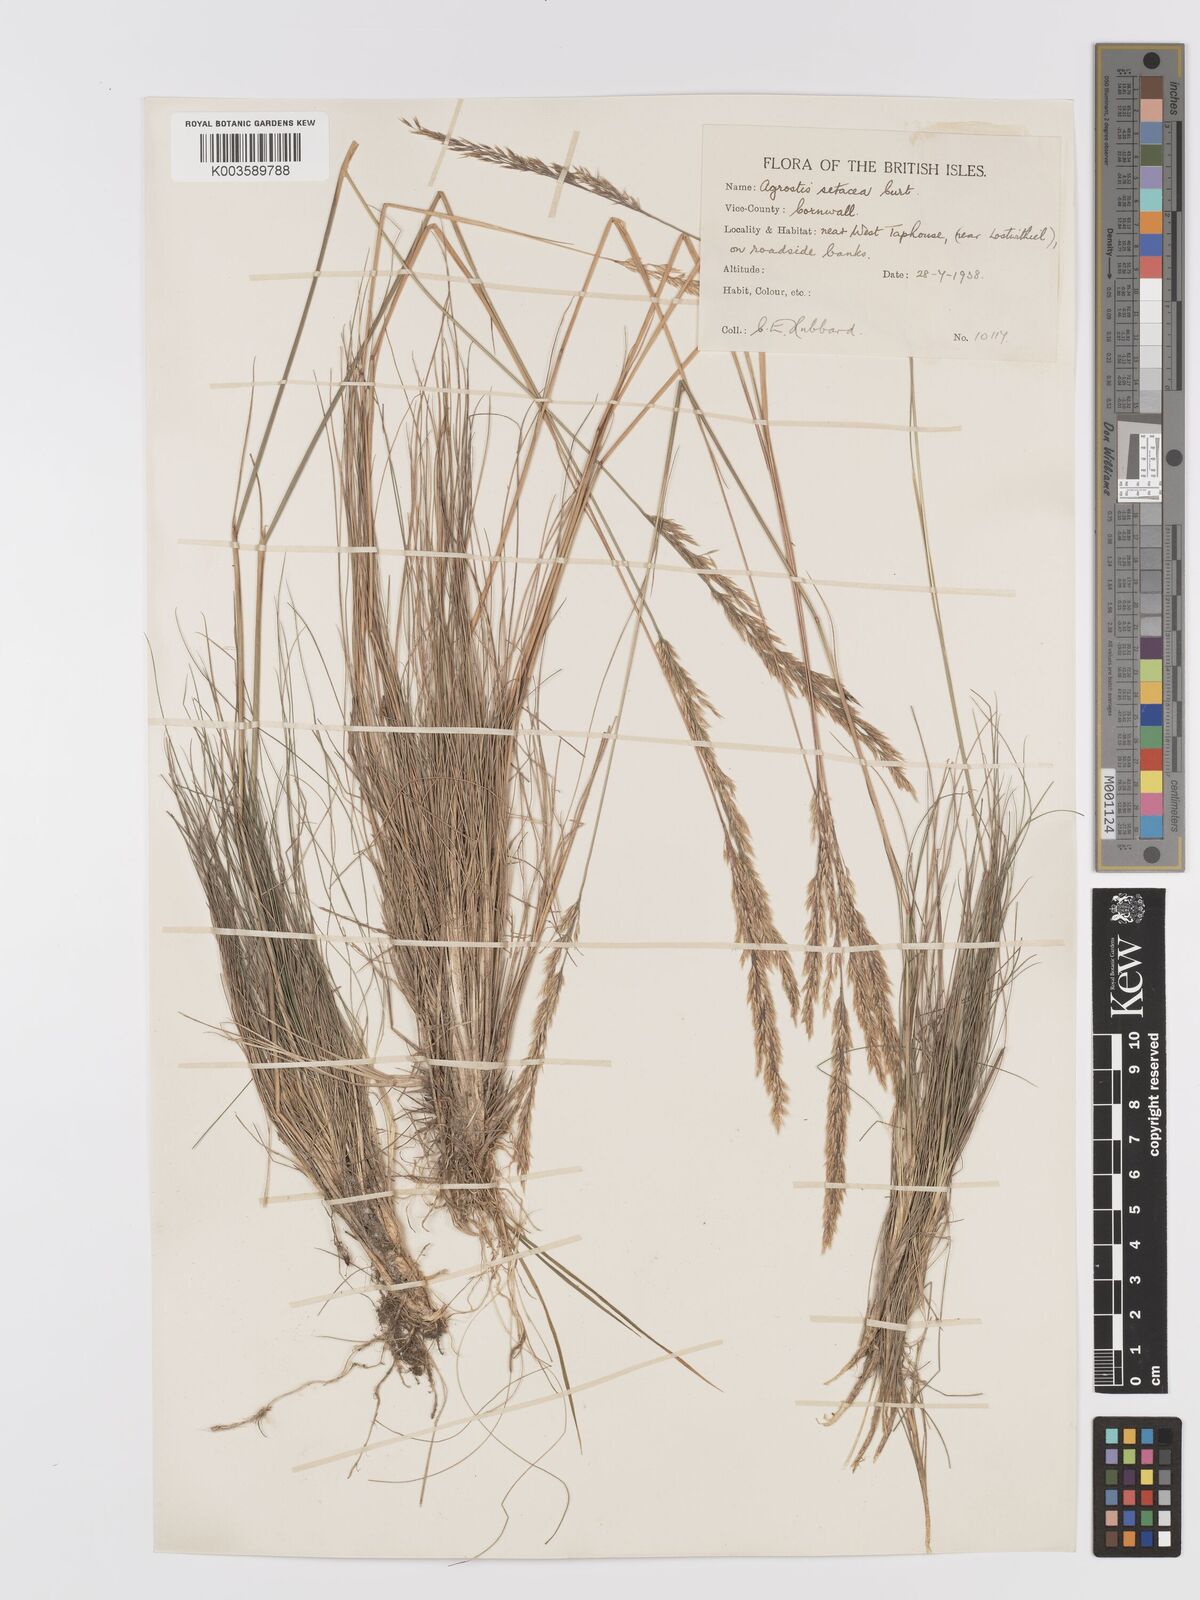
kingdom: Plantae
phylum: Tracheophyta
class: Liliopsida
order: Poales
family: Poaceae
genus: Alpagrostis
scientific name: Alpagrostis setacea
